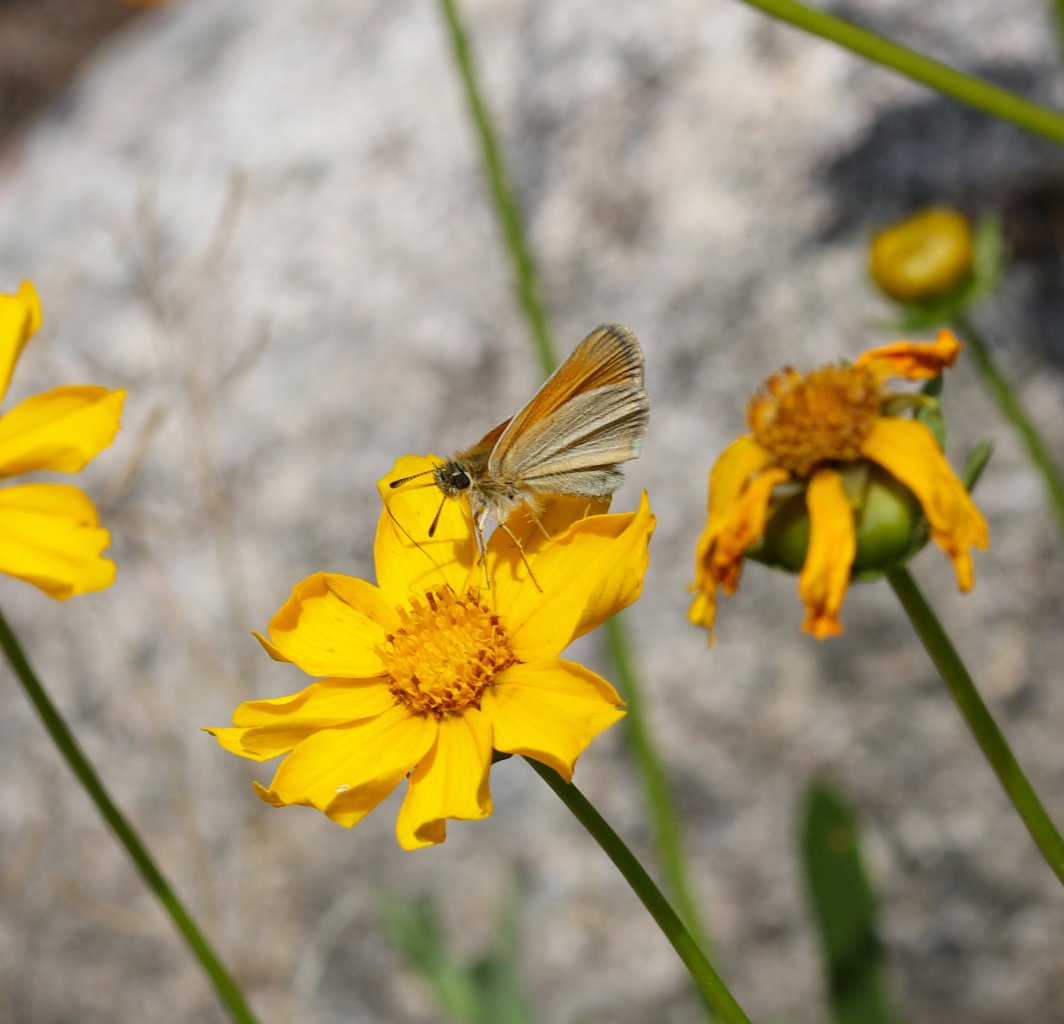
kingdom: Animalia
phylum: Arthropoda
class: Insecta
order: Lepidoptera
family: Hesperiidae
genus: Polites
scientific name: Polites themistocles
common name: Tawny-edged Skipper
